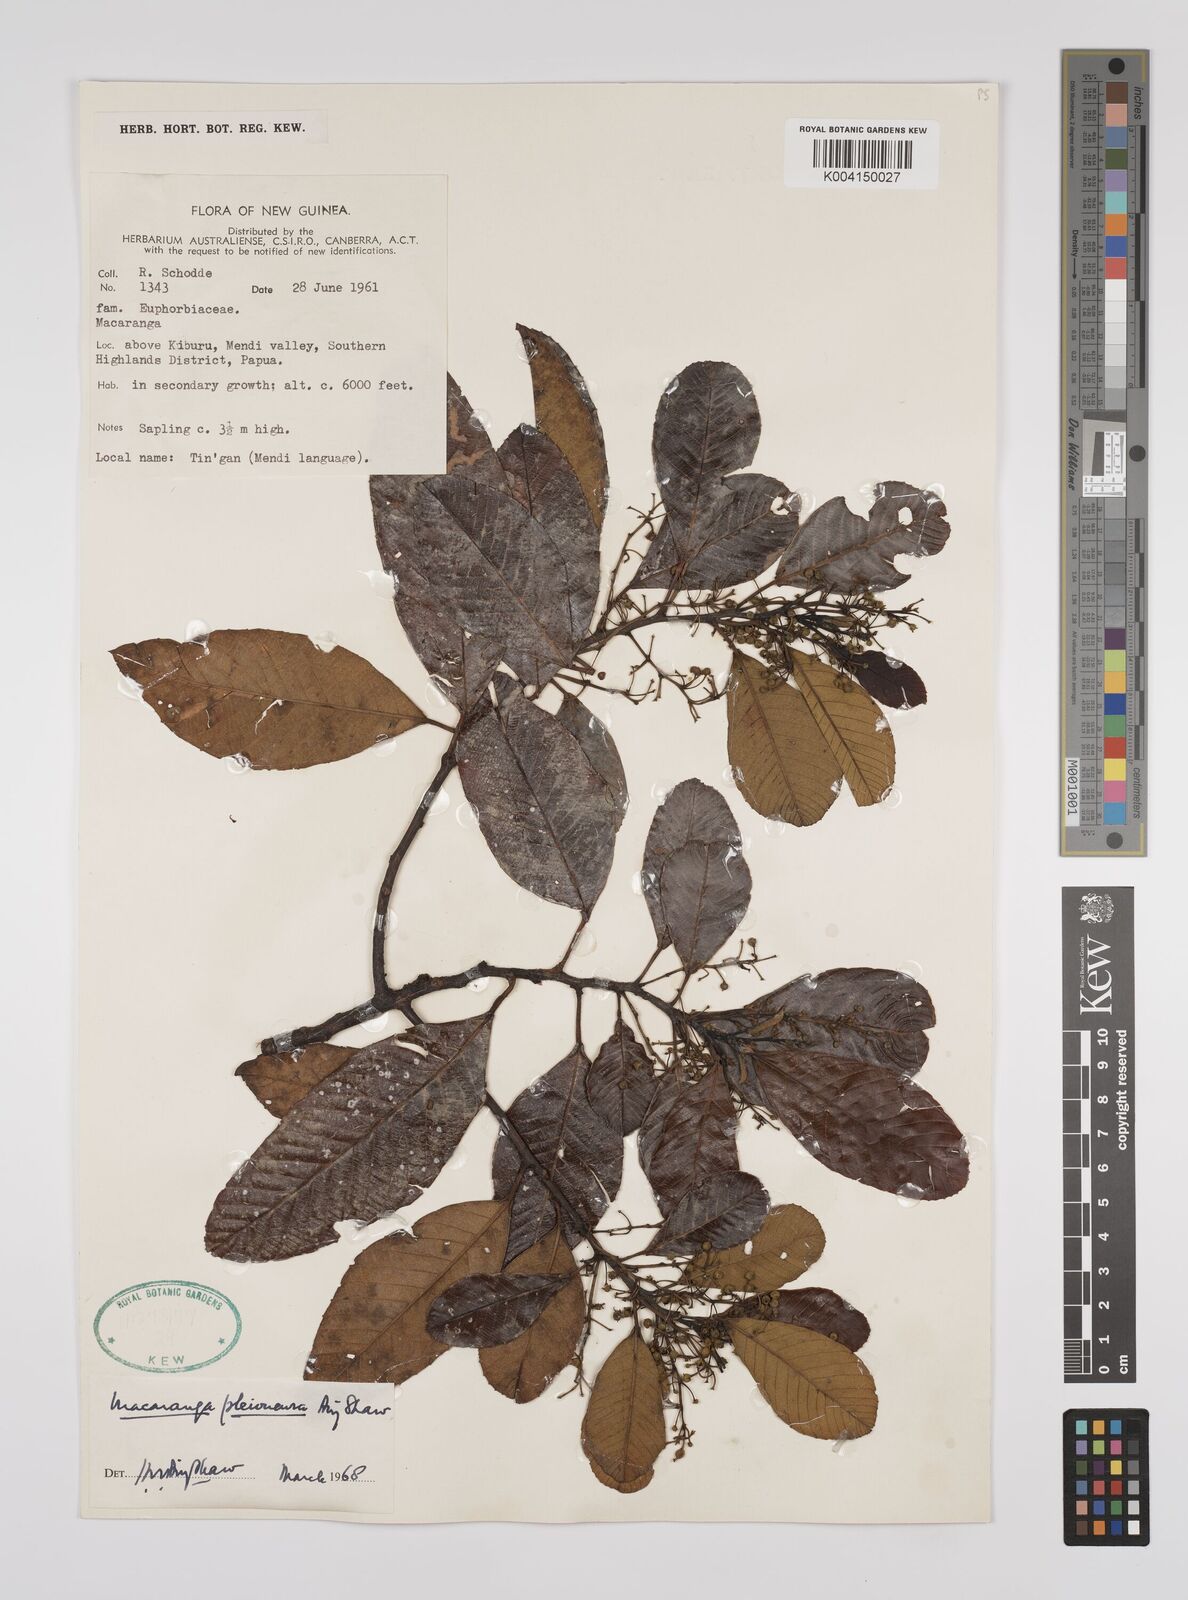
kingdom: Plantae
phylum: Tracheophyta
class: Magnoliopsida
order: Malpighiales
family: Euphorbiaceae
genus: Macaranga
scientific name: Macaranga pleioneura
